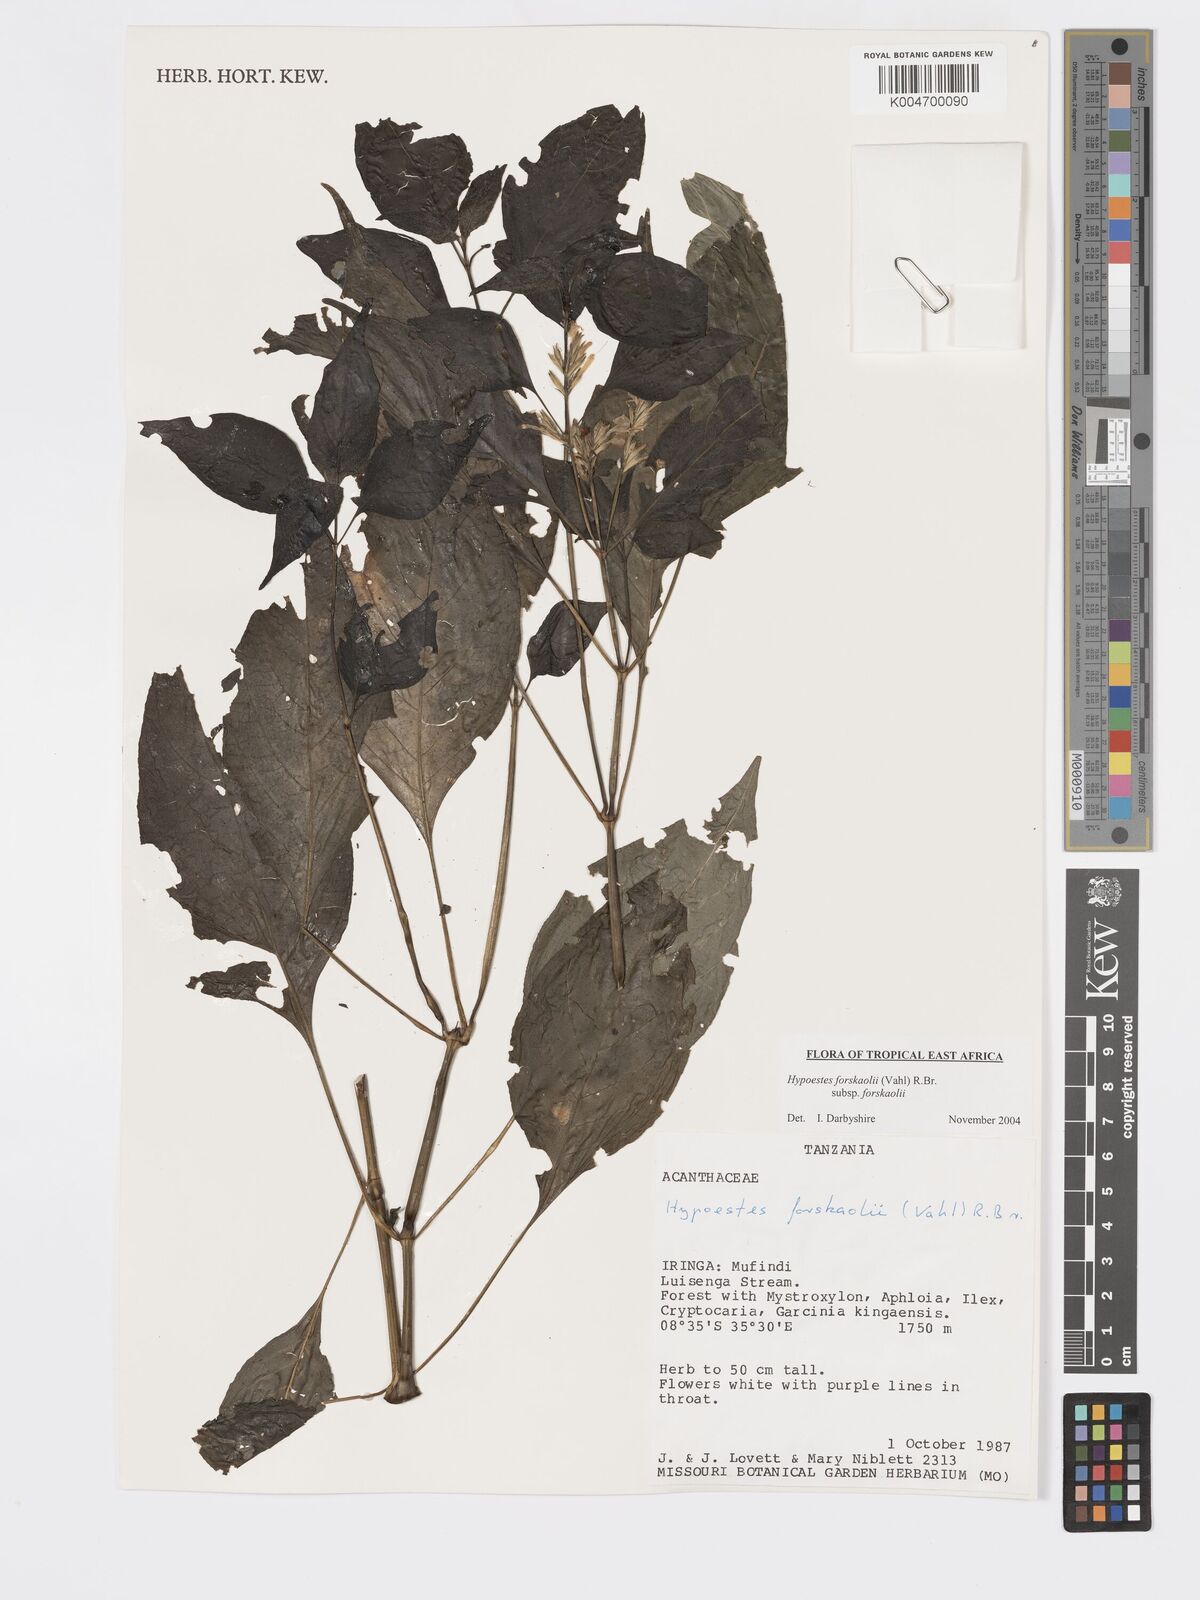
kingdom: Plantae
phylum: Tracheophyta
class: Magnoliopsida
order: Lamiales
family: Acanthaceae
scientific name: Acanthaceae
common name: Acanthaceae
